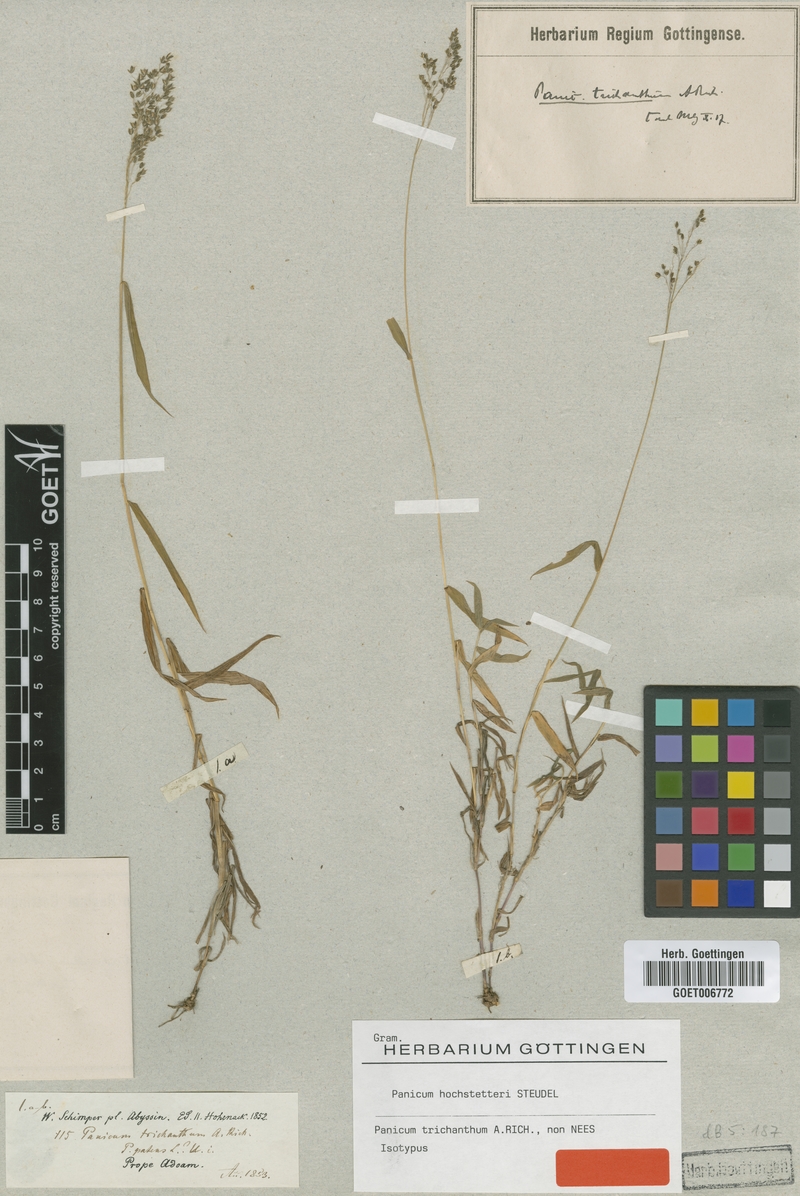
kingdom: Plantae
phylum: Tracheophyta
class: Liliopsida
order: Poales
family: Poaceae
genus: Panicum
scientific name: Panicum hochstetteri
